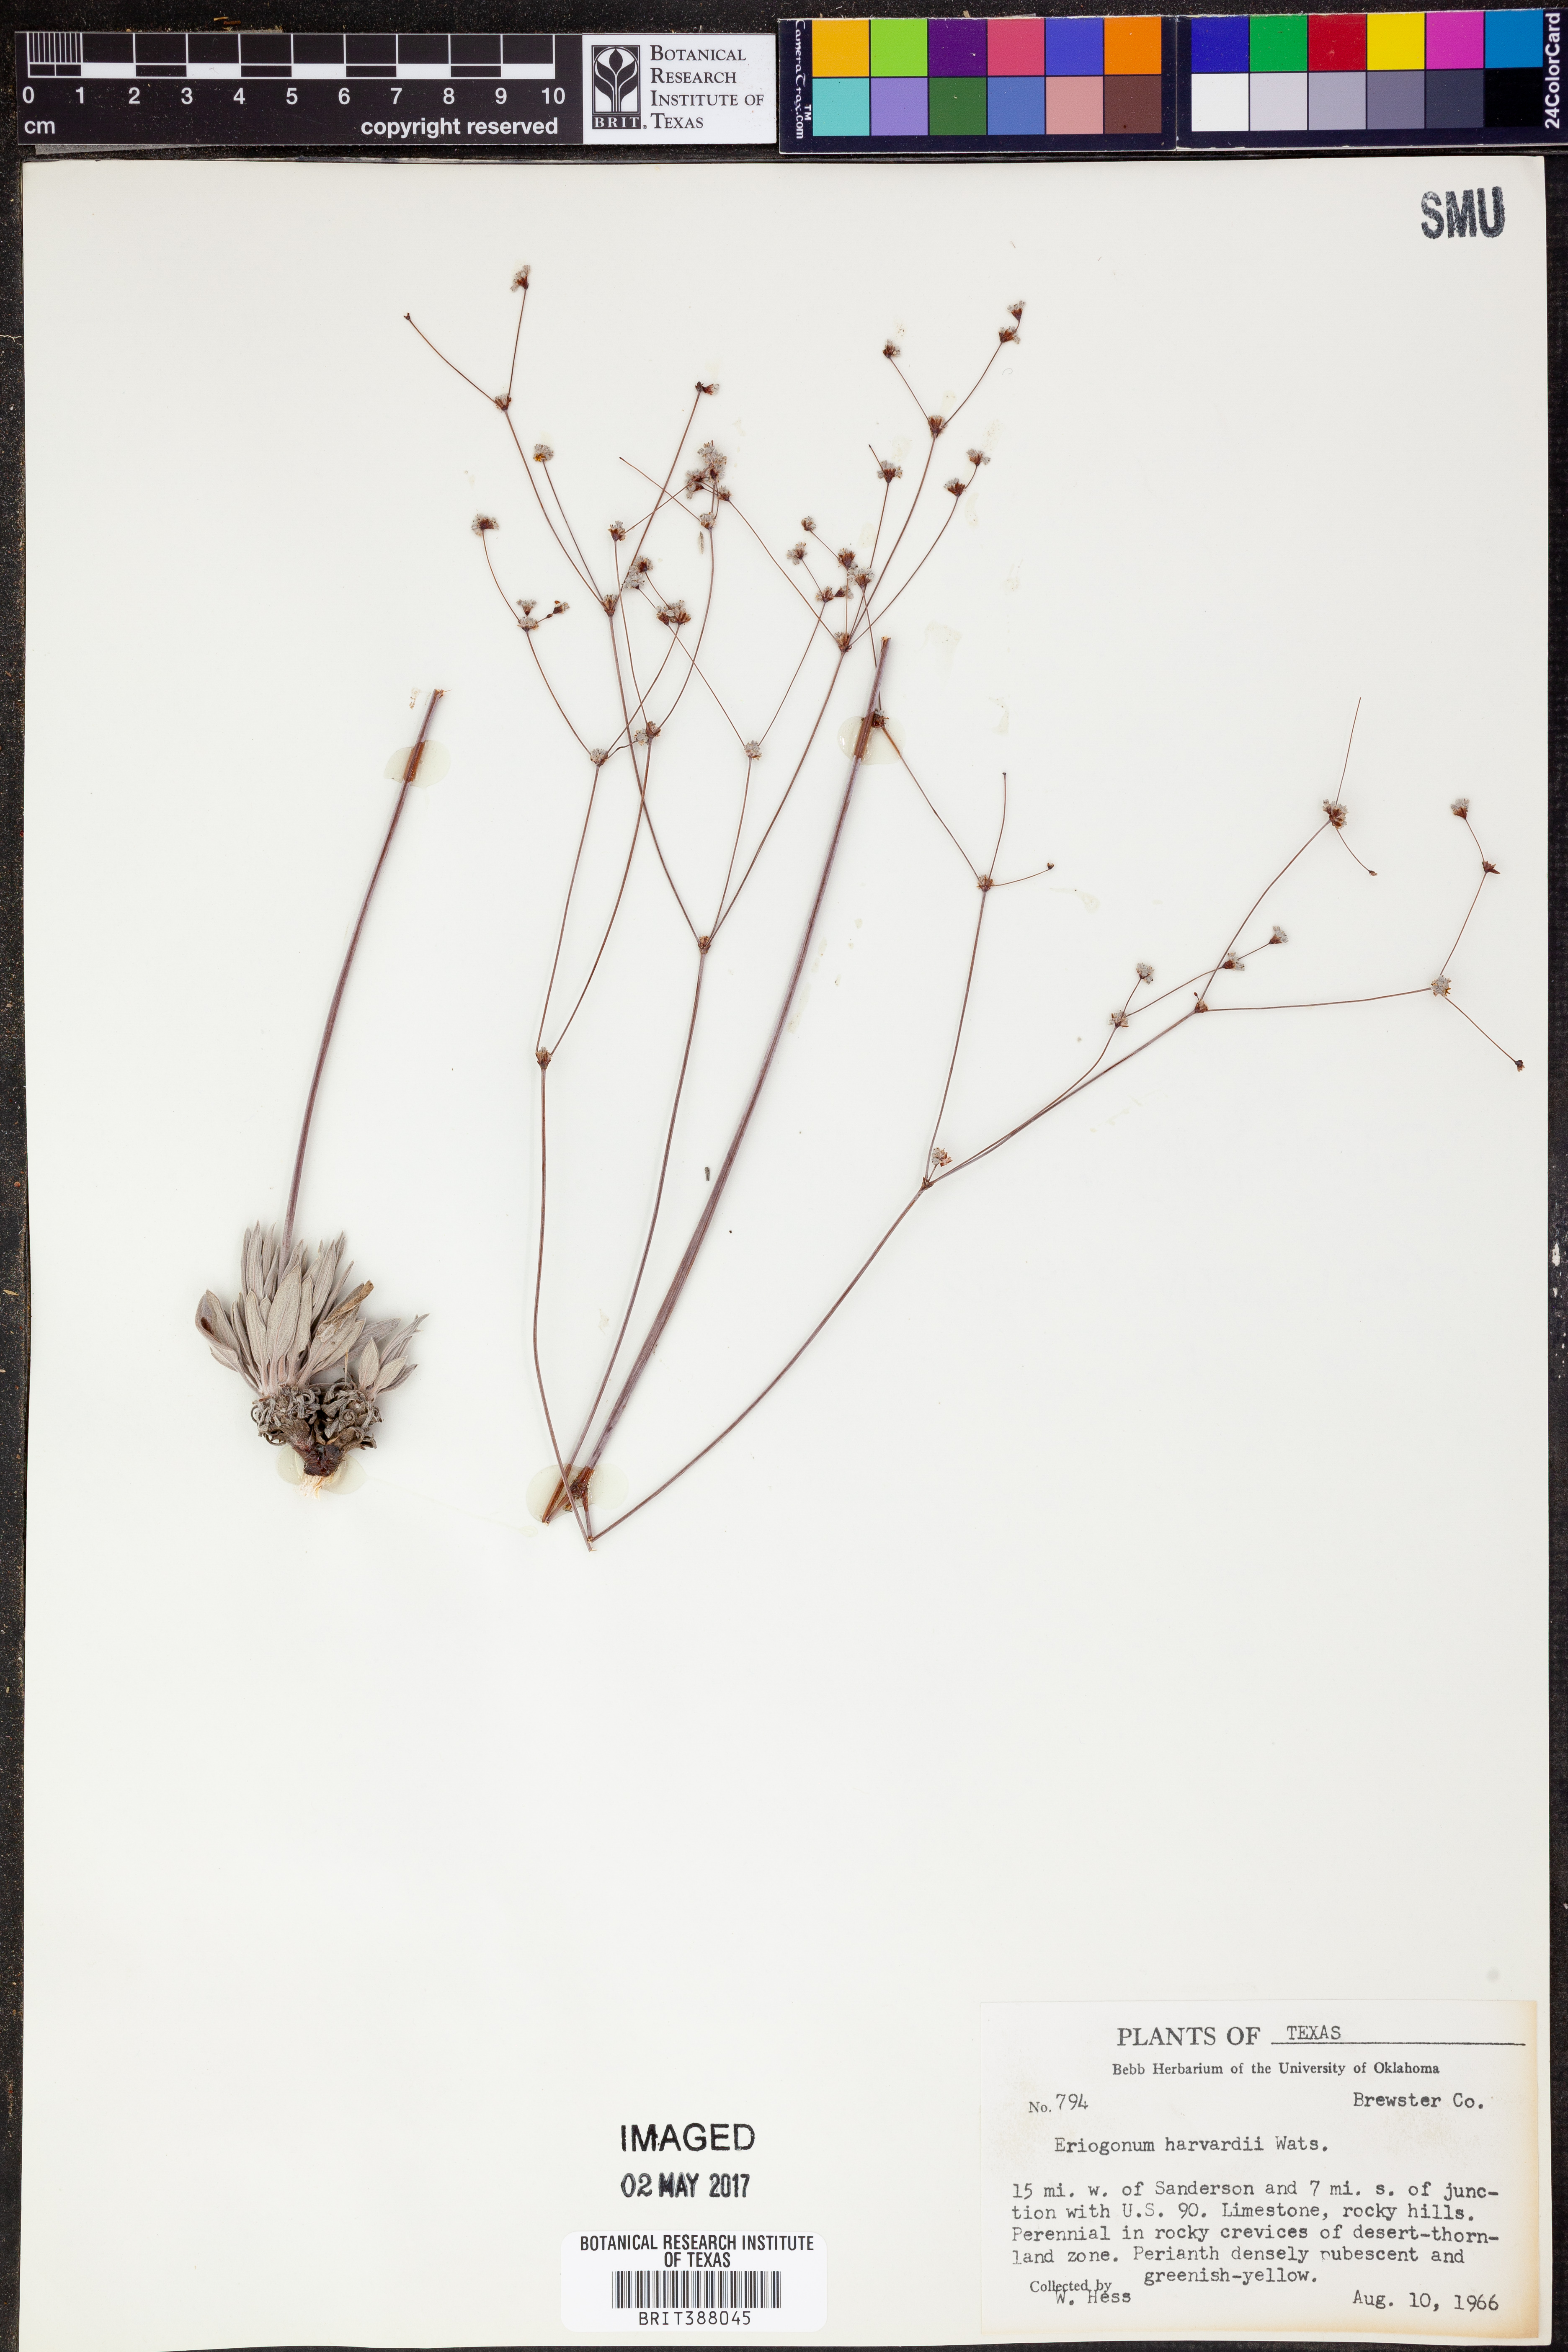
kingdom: Plantae
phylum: Tracheophyta
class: Magnoliopsida
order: Caryophyllales
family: Polygonaceae
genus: Eriogonum
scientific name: Eriogonum havardii
